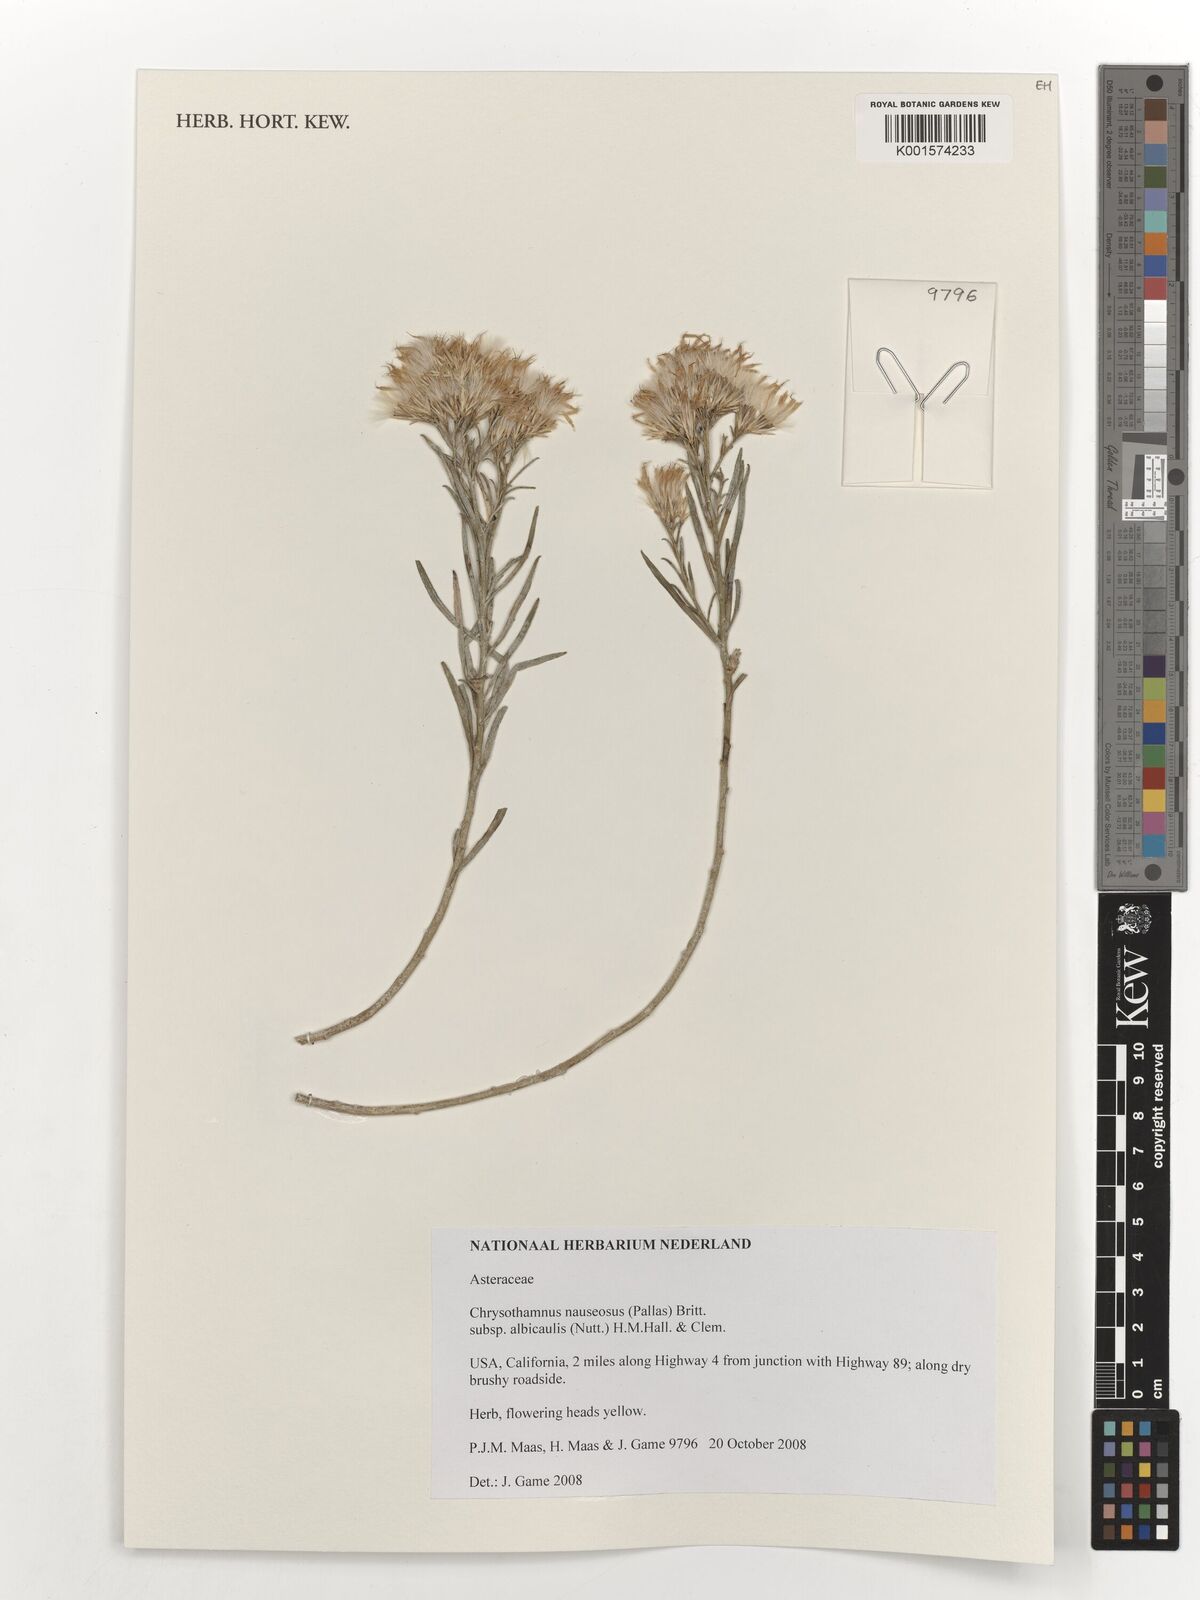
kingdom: Plantae
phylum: Tracheophyta
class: Magnoliopsida
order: Asterales
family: Asteraceae
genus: Ericameria
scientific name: Ericameria nauseosa
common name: Rubber rabbitbrush
